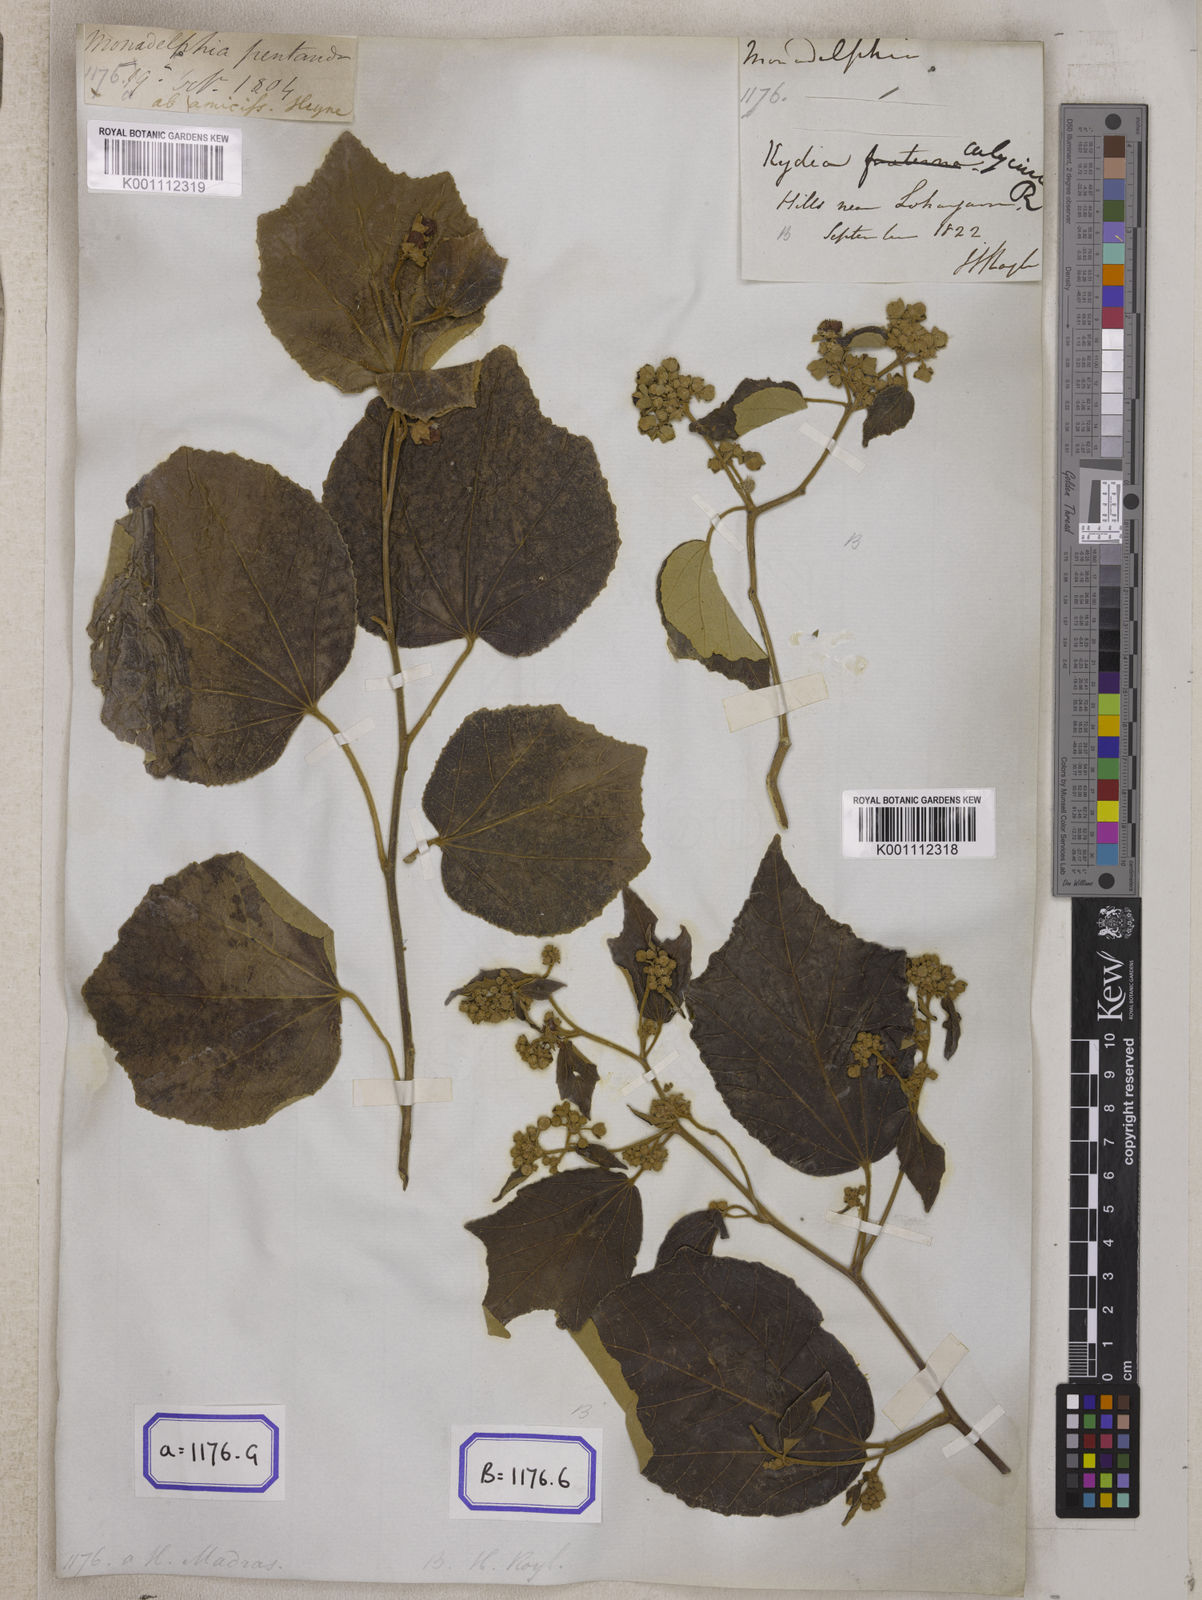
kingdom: Plantae
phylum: Tracheophyta
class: Magnoliopsida
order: Malvales
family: Malvaceae
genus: Kydia
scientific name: Kydia calycina
